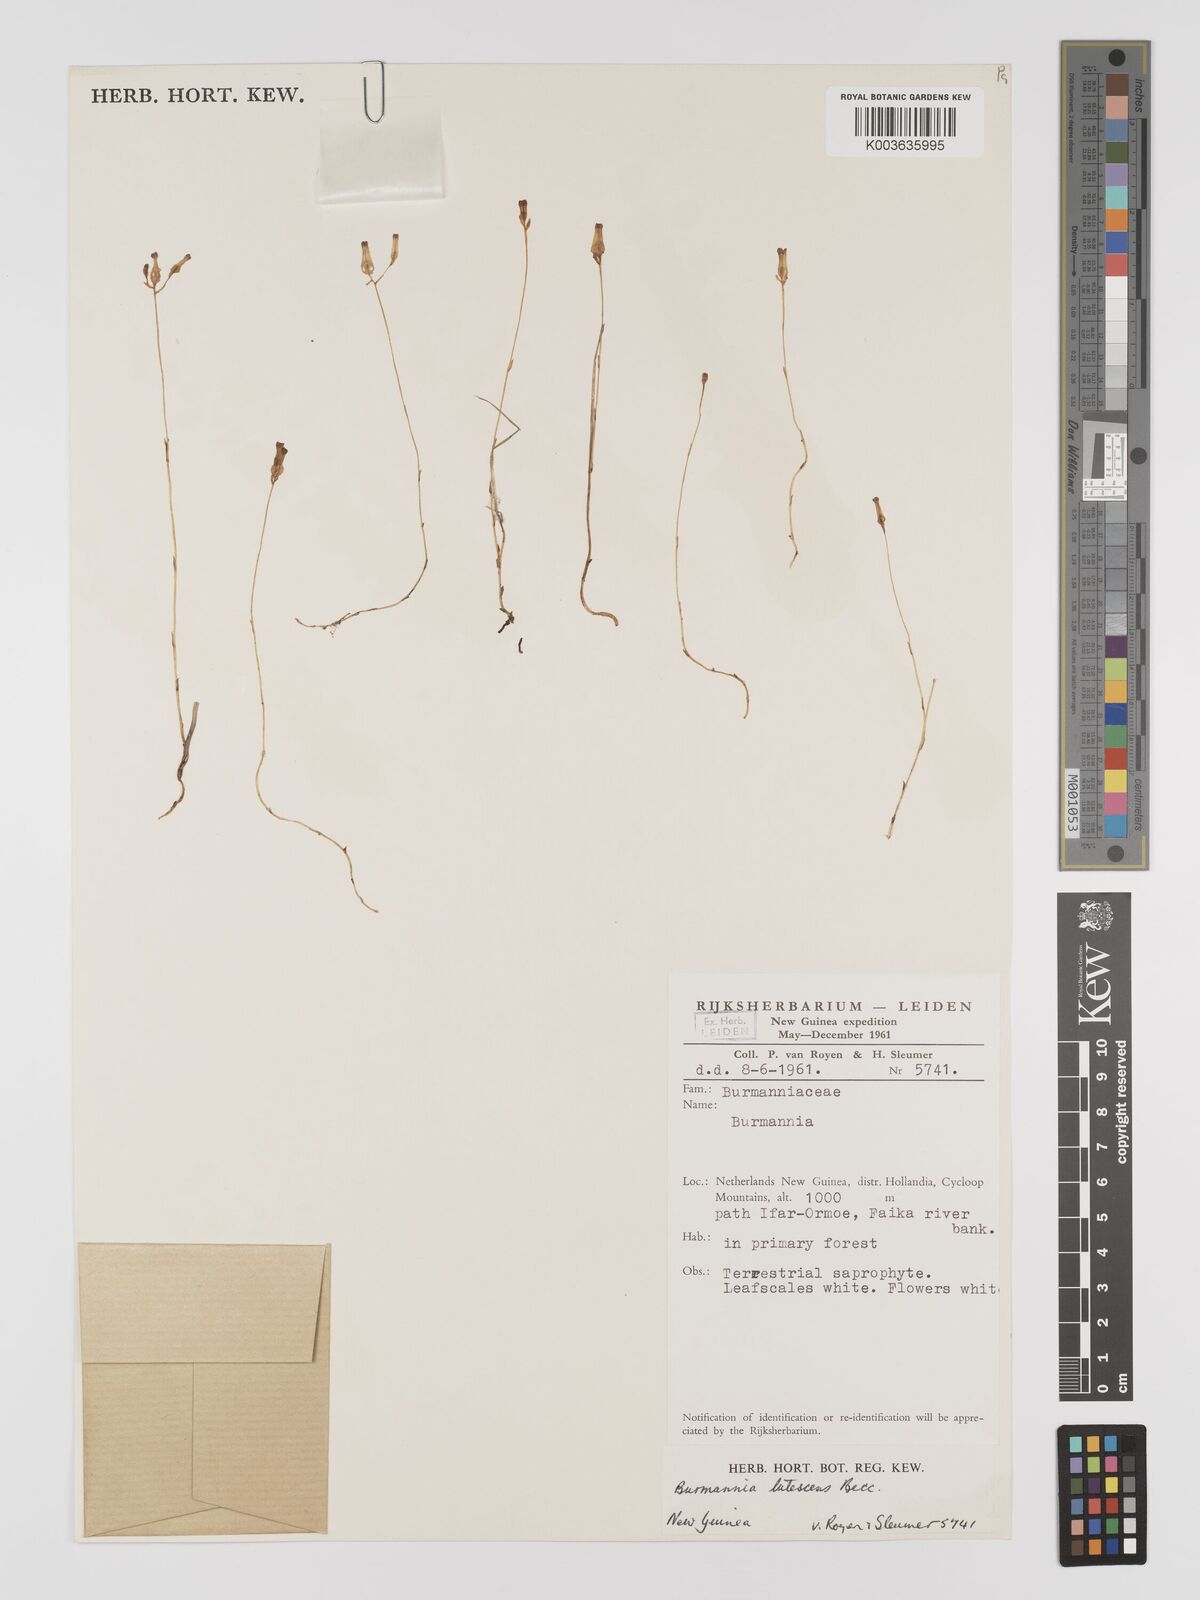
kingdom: Plantae
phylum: Tracheophyta
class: Liliopsida
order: Dioscoreales
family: Burmanniaceae
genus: Burmannia
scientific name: Burmannia lutescens
